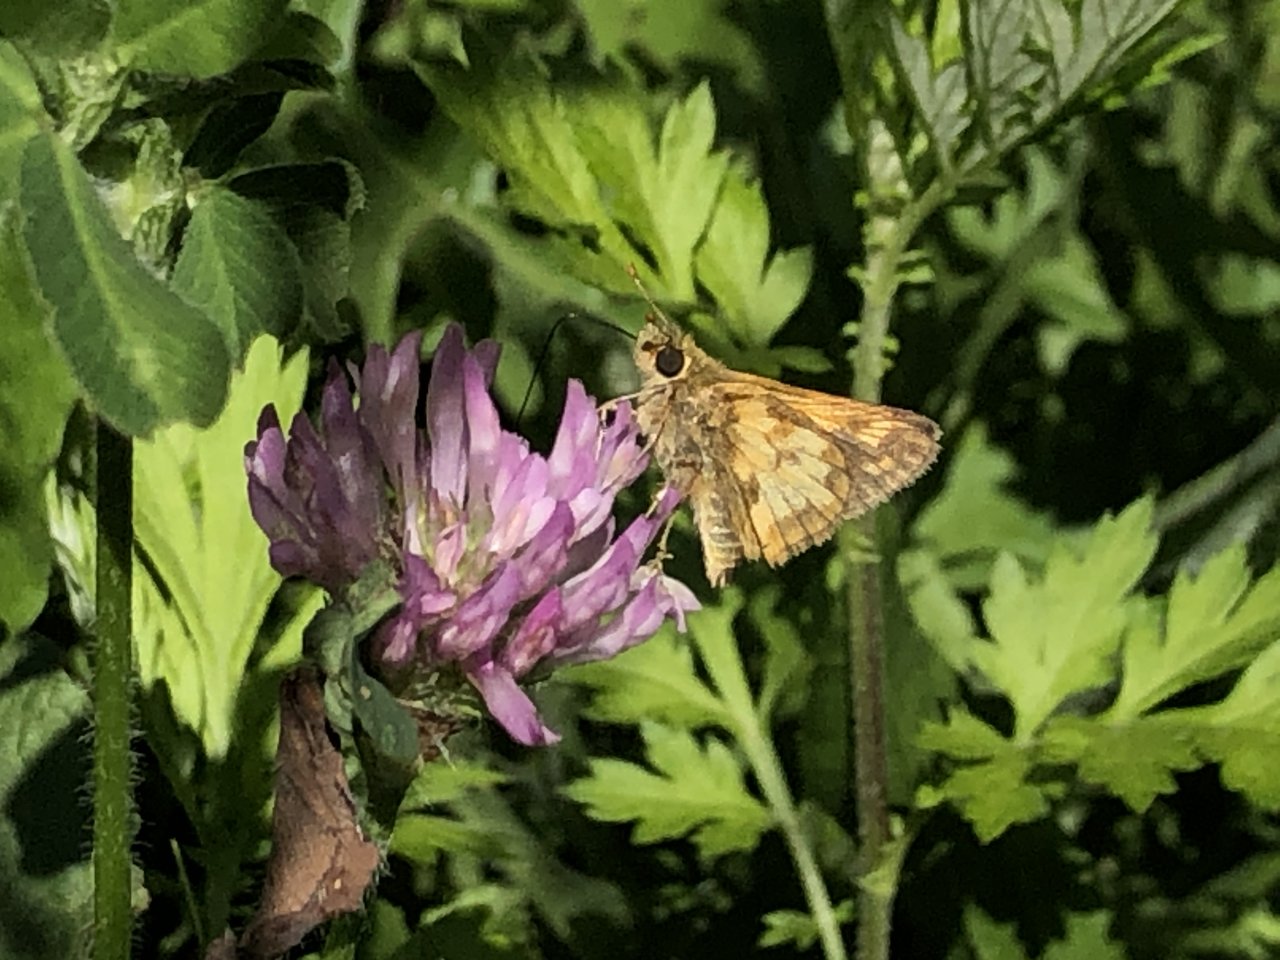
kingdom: Animalia
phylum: Arthropoda
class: Insecta
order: Lepidoptera
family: Hesperiidae
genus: Polites
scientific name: Polites coras
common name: Peck's Skipper
